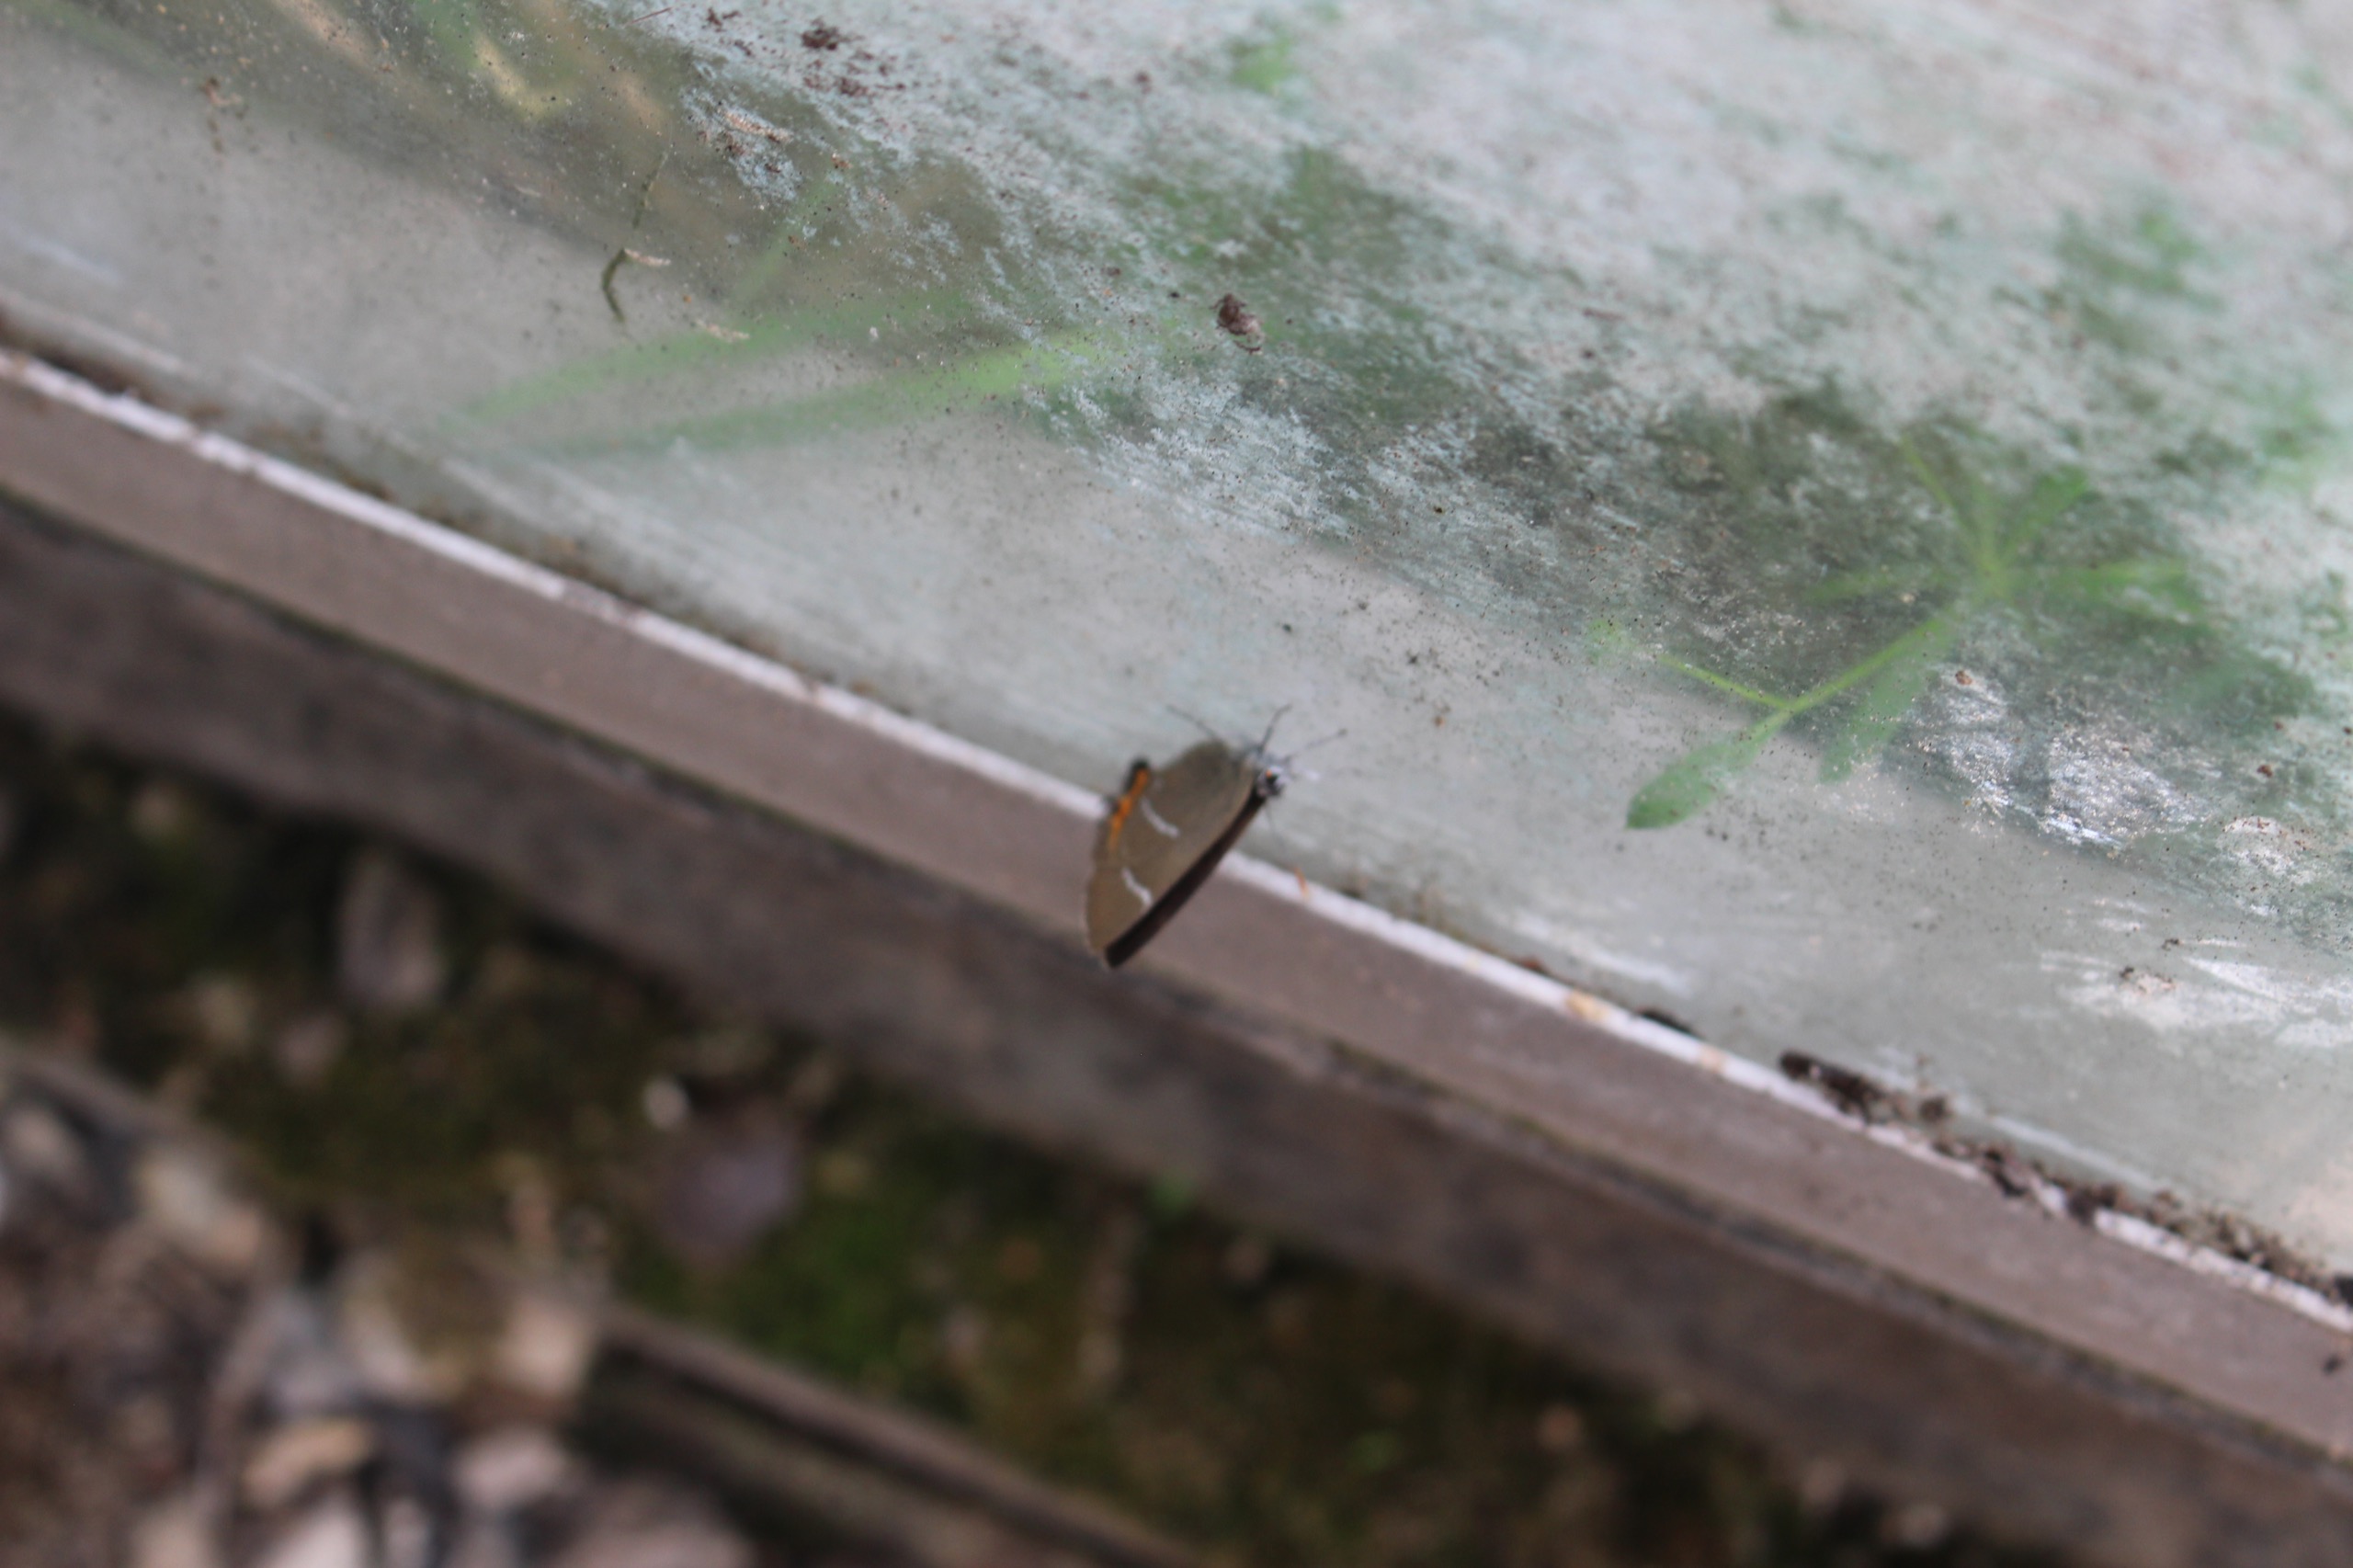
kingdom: Animalia
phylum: Arthropoda
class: Insecta
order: Lepidoptera
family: Lycaenidae
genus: Satyrium
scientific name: Satyrium w-album
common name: Det hvide W
